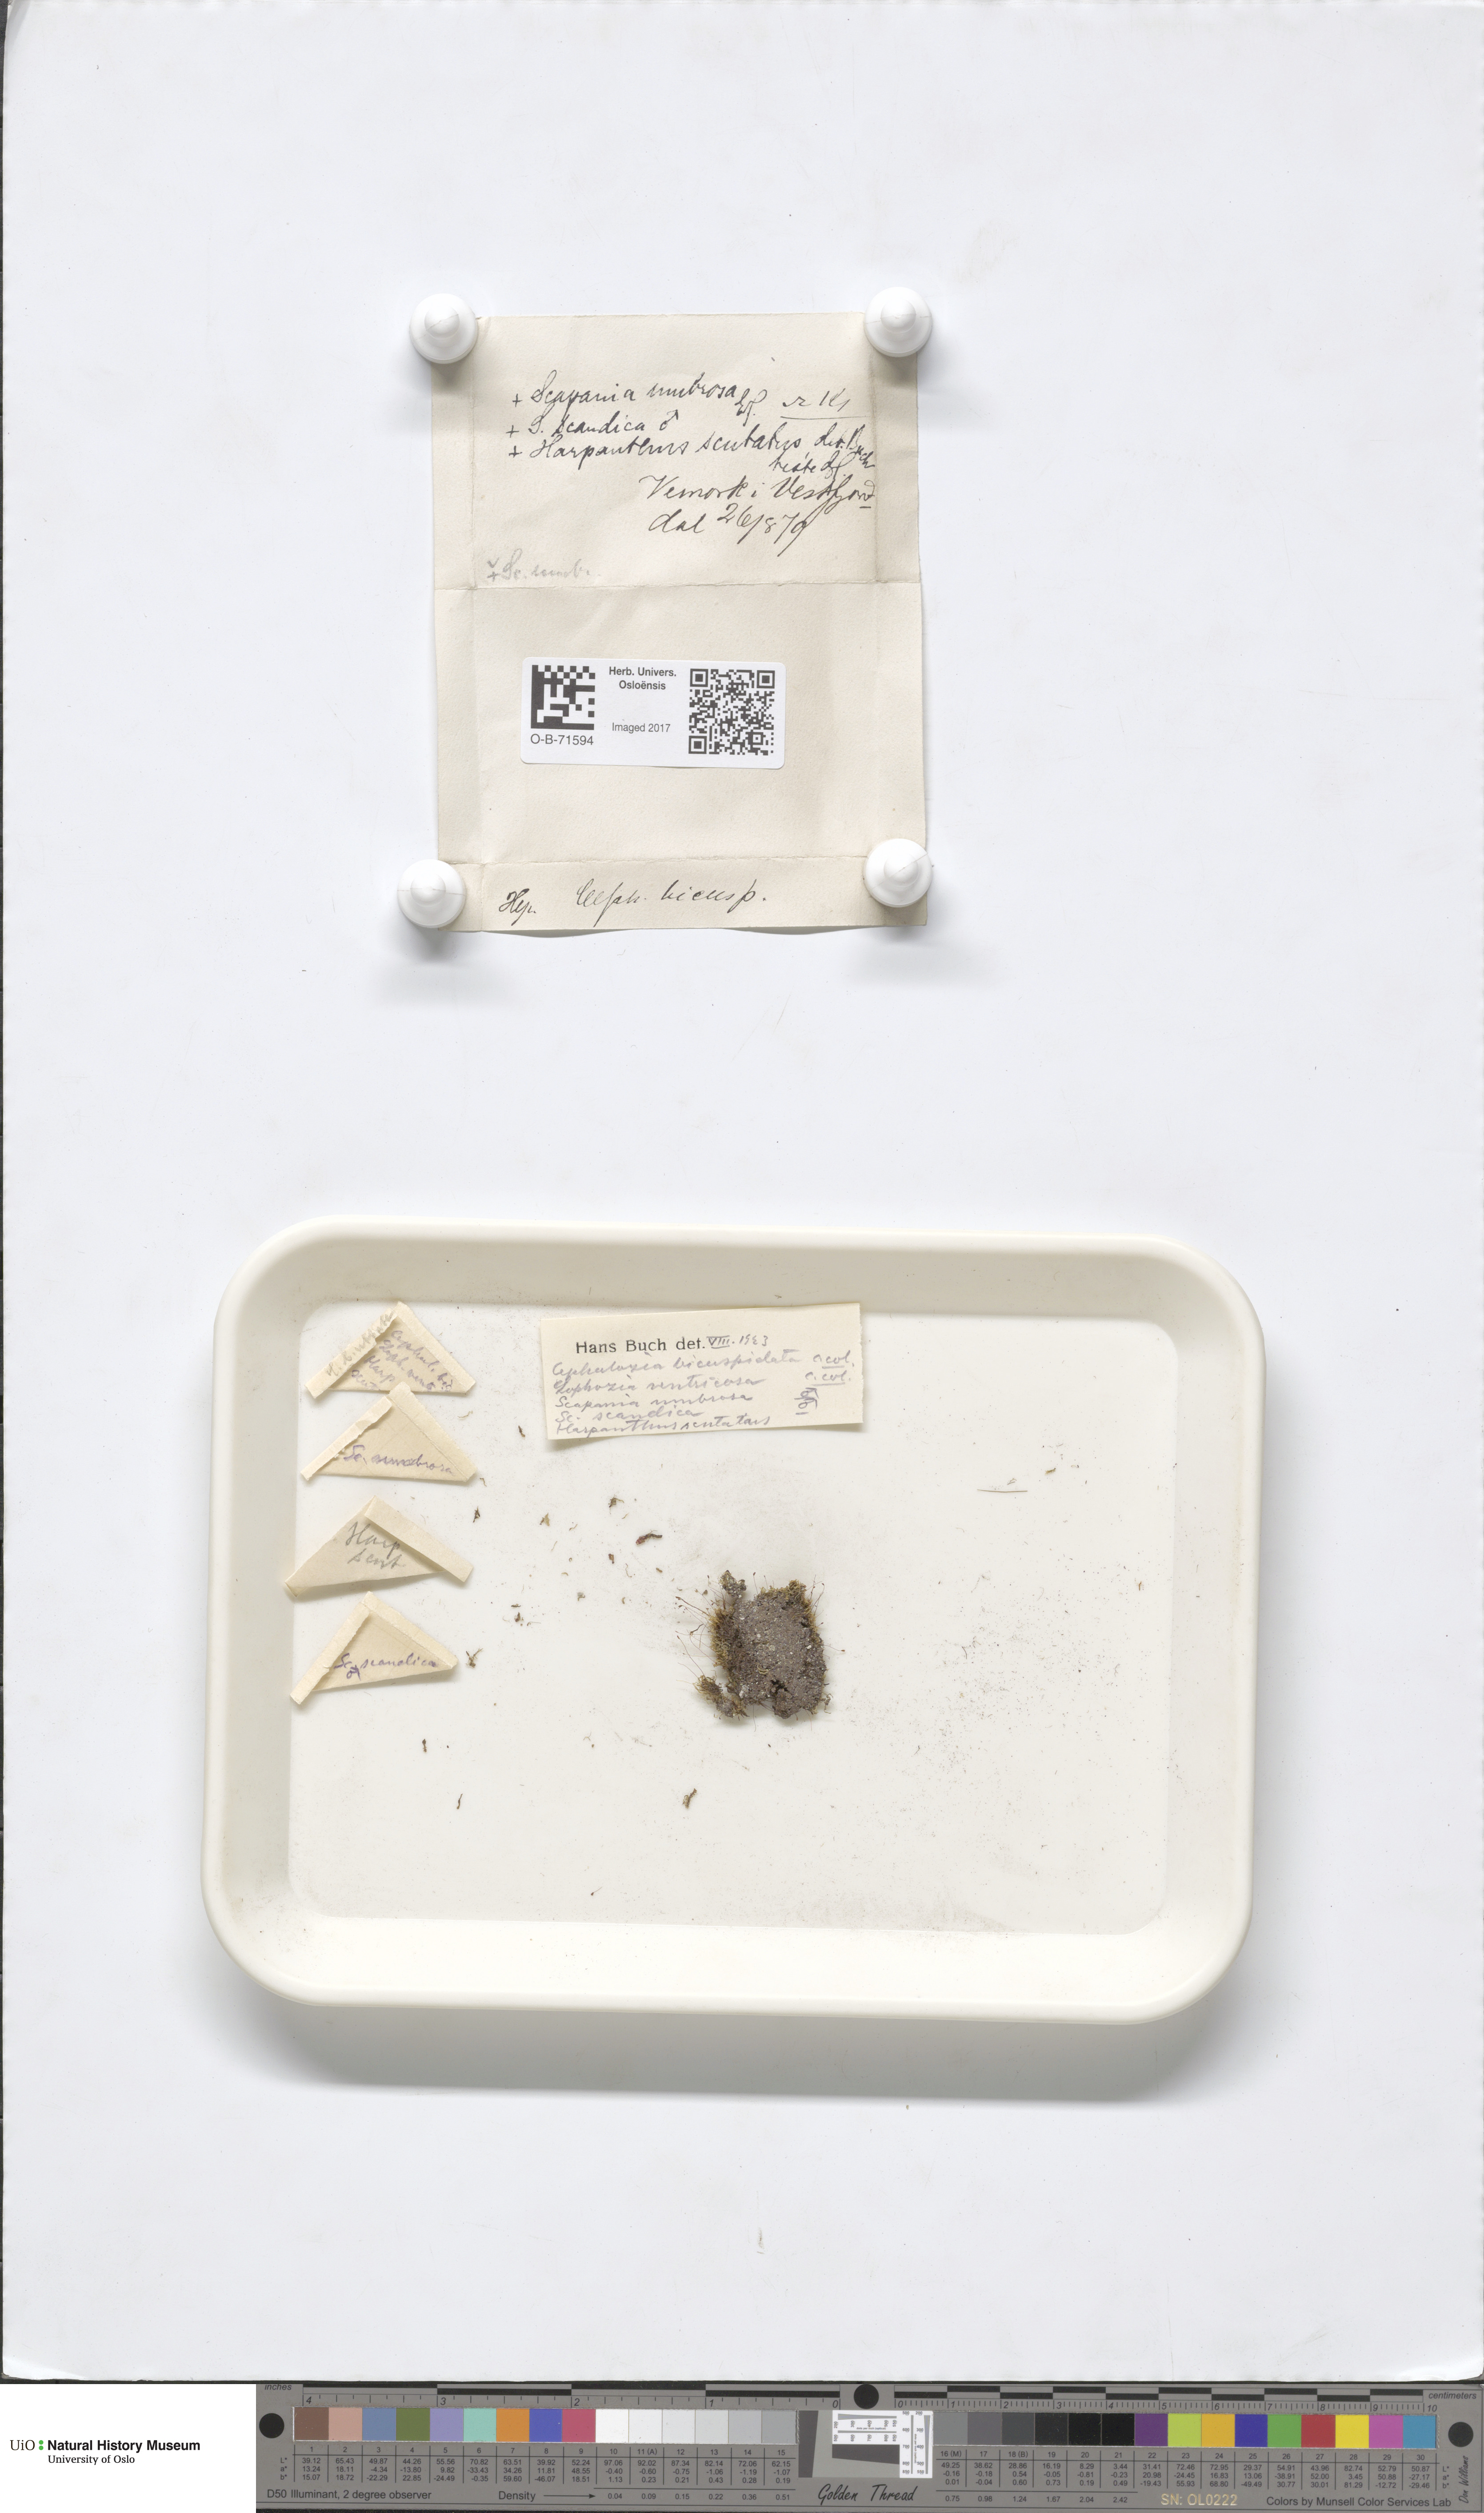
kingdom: Plantae
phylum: Marchantiophyta
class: Jungermanniopsida
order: Jungermanniales
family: Cephaloziaceae
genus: Cephalozia
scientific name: Cephalozia bicuspidata
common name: Two-horned pincerwort
